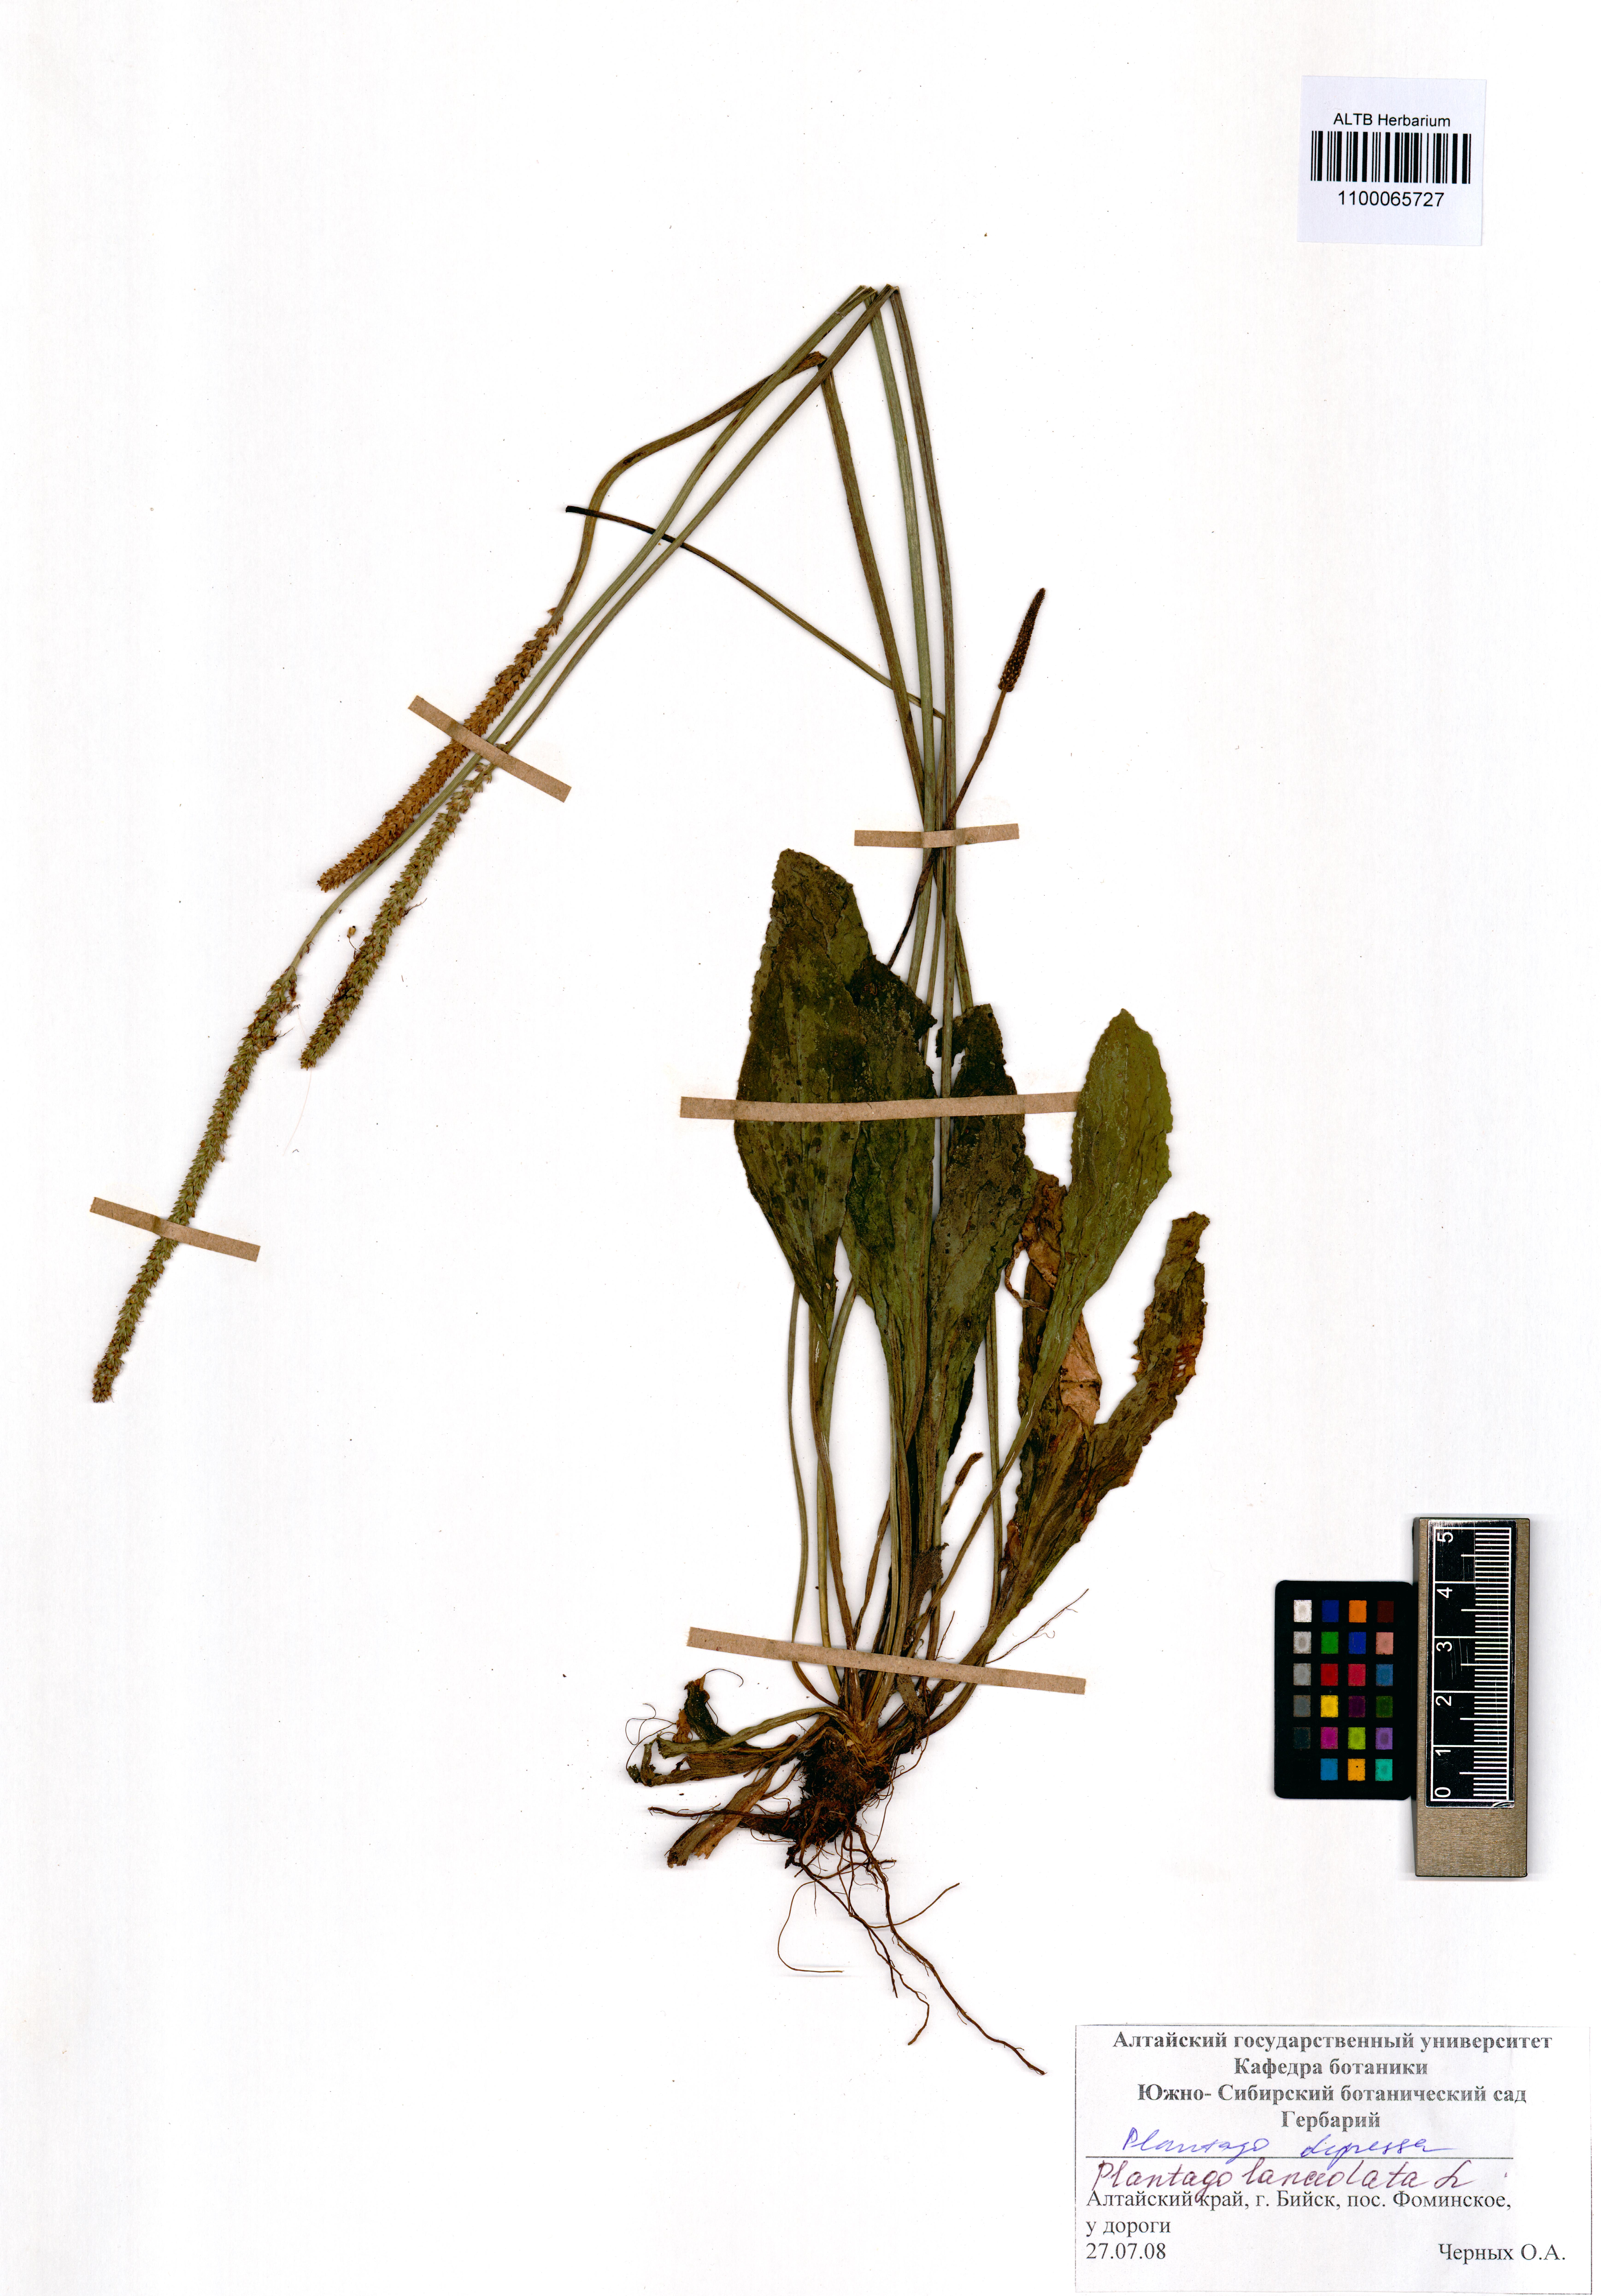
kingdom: Plantae
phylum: Tracheophyta
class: Magnoliopsida
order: Lamiales
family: Plantaginaceae
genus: Plantago
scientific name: Plantago depressa
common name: Depressed plantain
